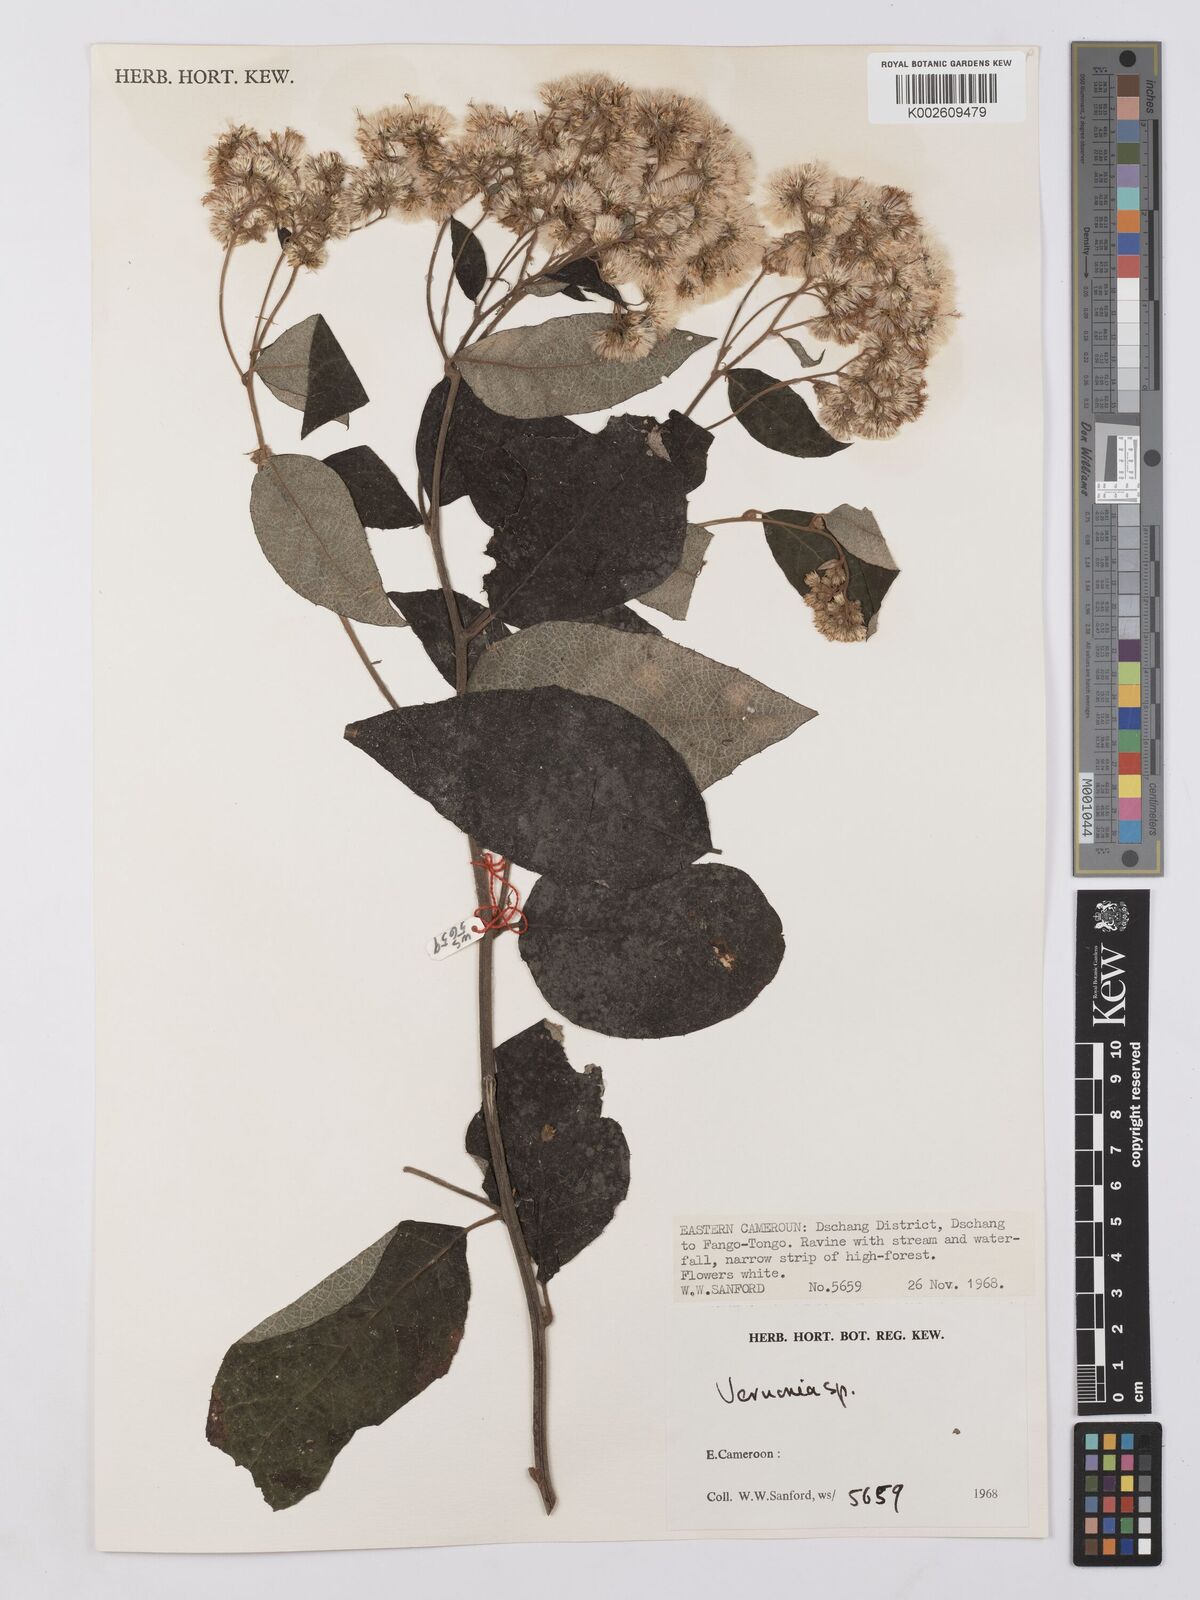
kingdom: Plantae
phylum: Tracheophyta
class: Magnoliopsida
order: Asterales
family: Asteraceae
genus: Vernonia
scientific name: Vernonia
